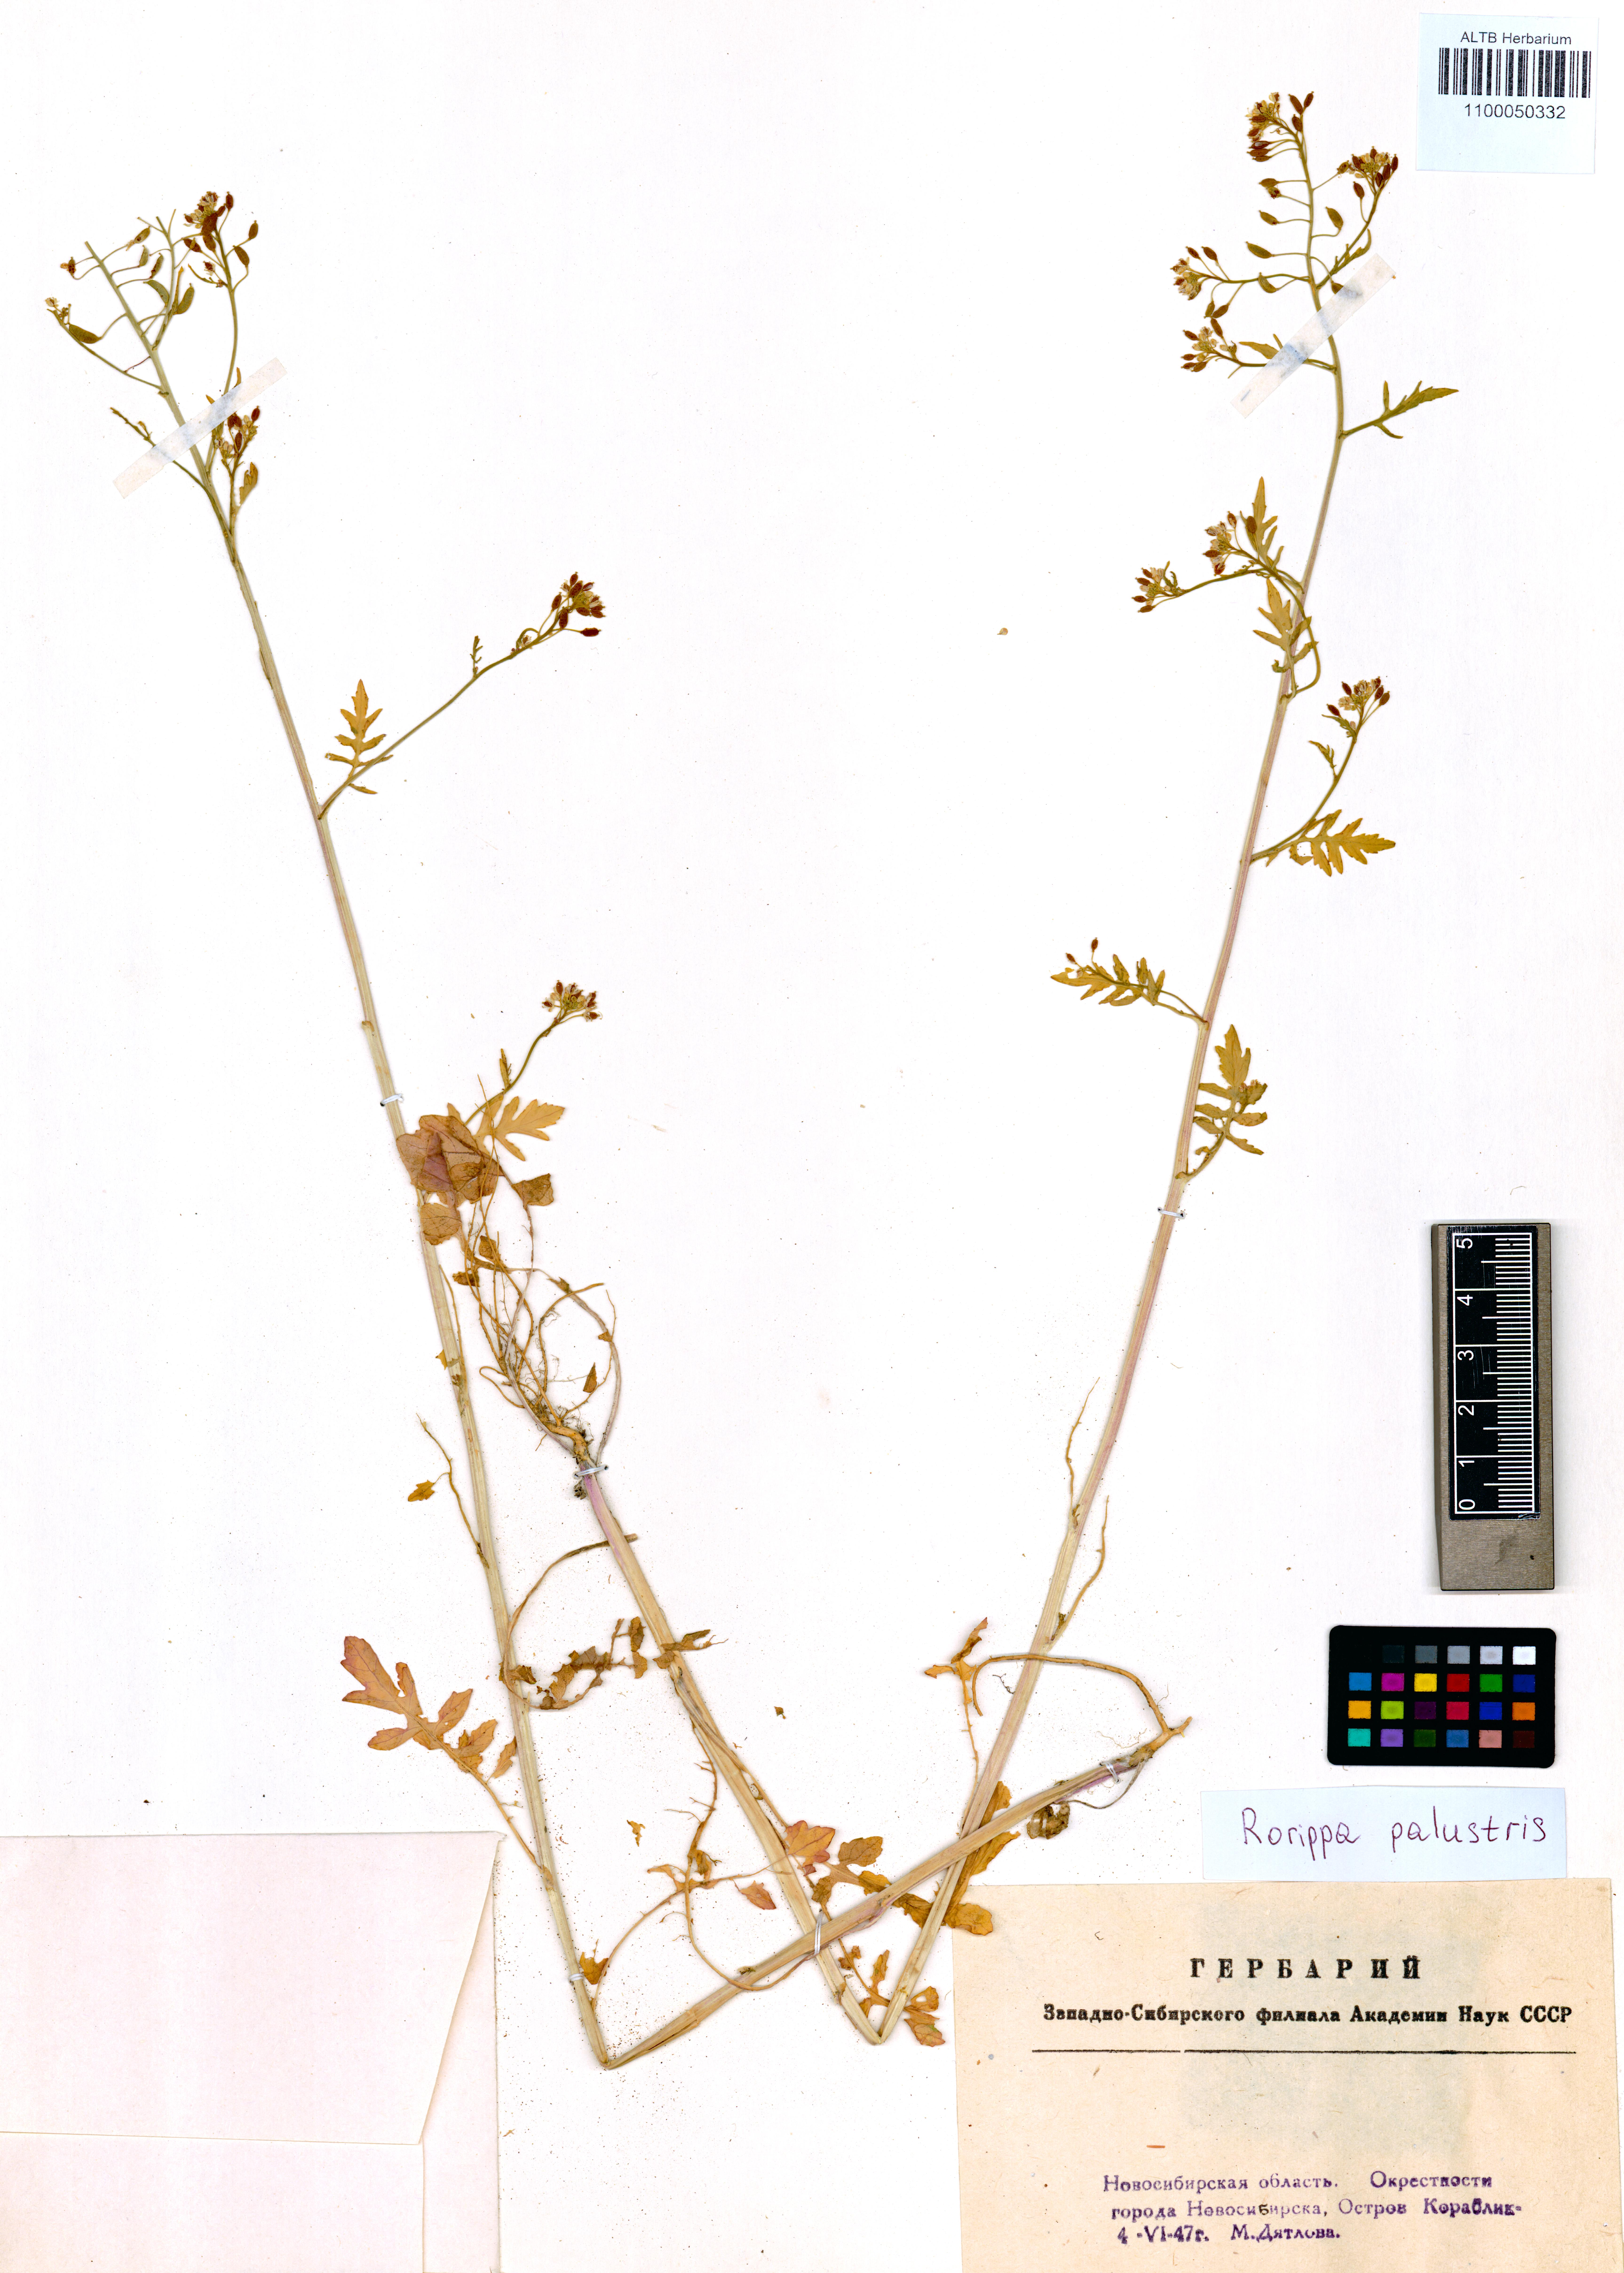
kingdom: Plantae
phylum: Tracheophyta
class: Magnoliopsida
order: Brassicales
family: Brassicaceae
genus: Rorippa
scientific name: Rorippa palustris
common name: Marsh yellow-cress
